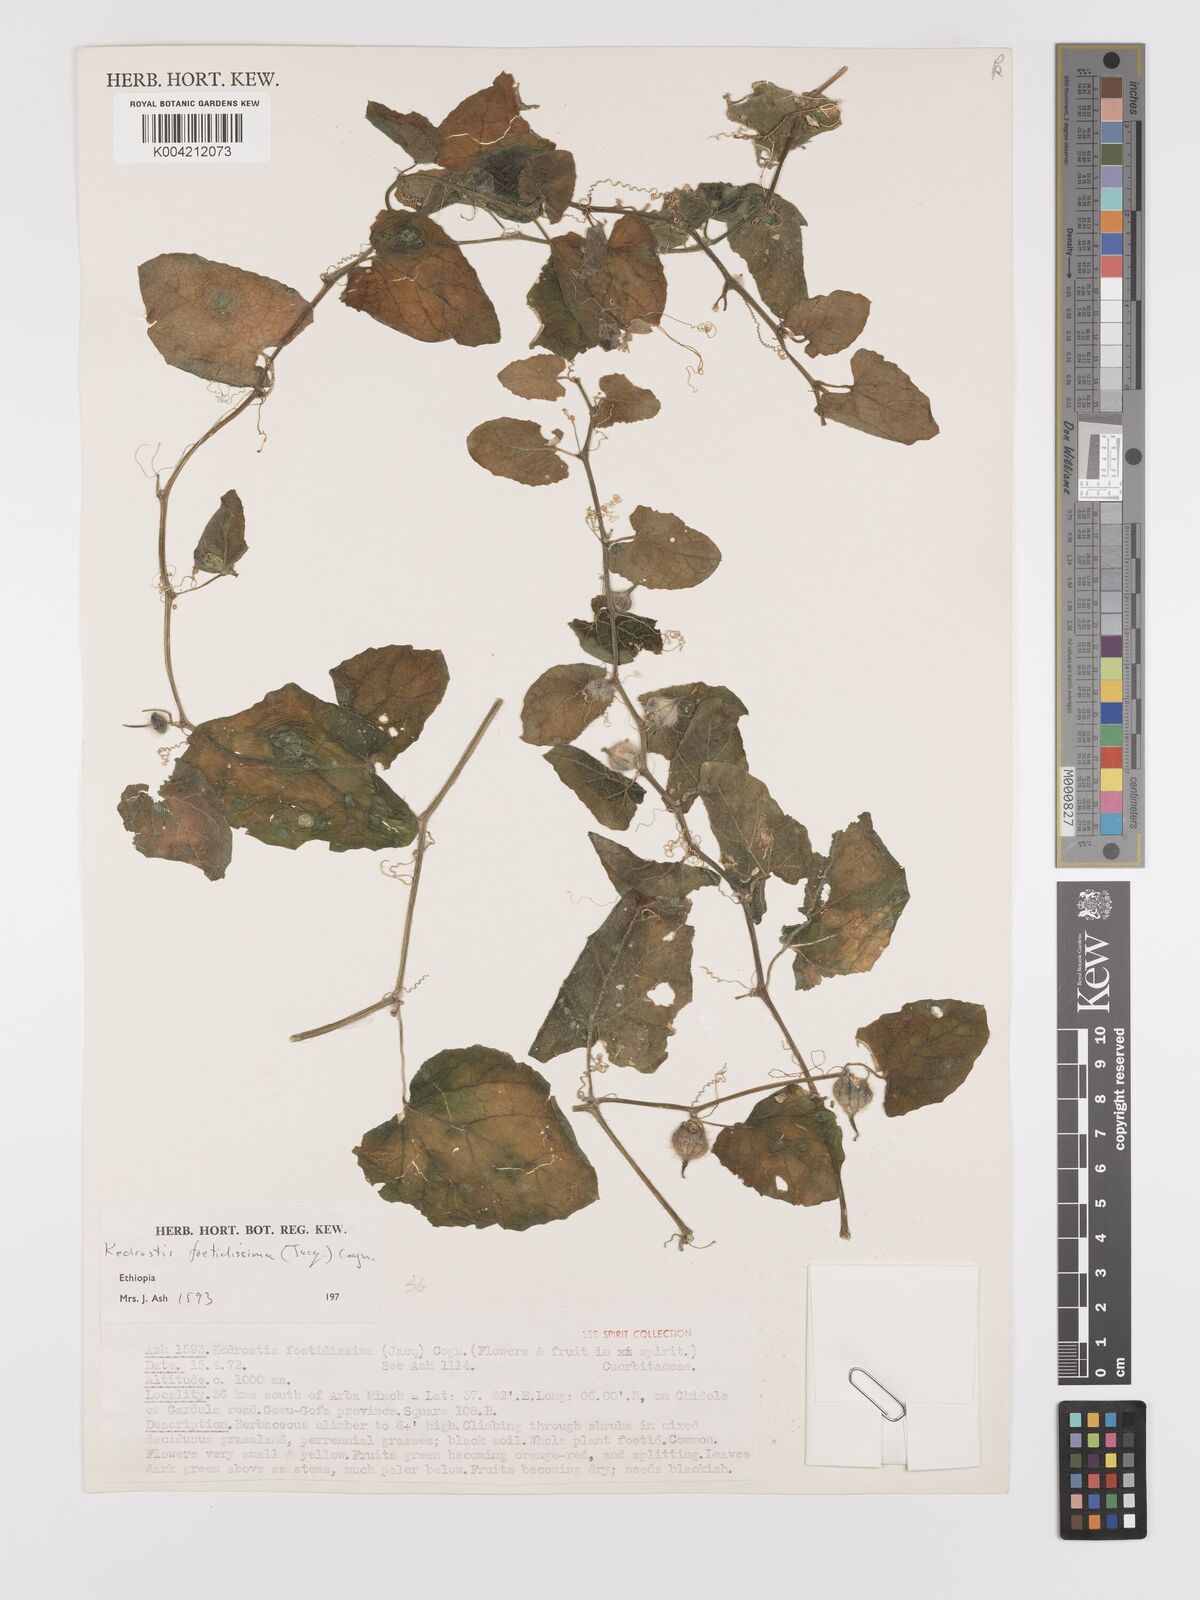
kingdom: Plantae
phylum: Tracheophyta
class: Magnoliopsida
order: Cucurbitales
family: Cucurbitaceae
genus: Kedrostis
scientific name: Kedrostis foetidissima
